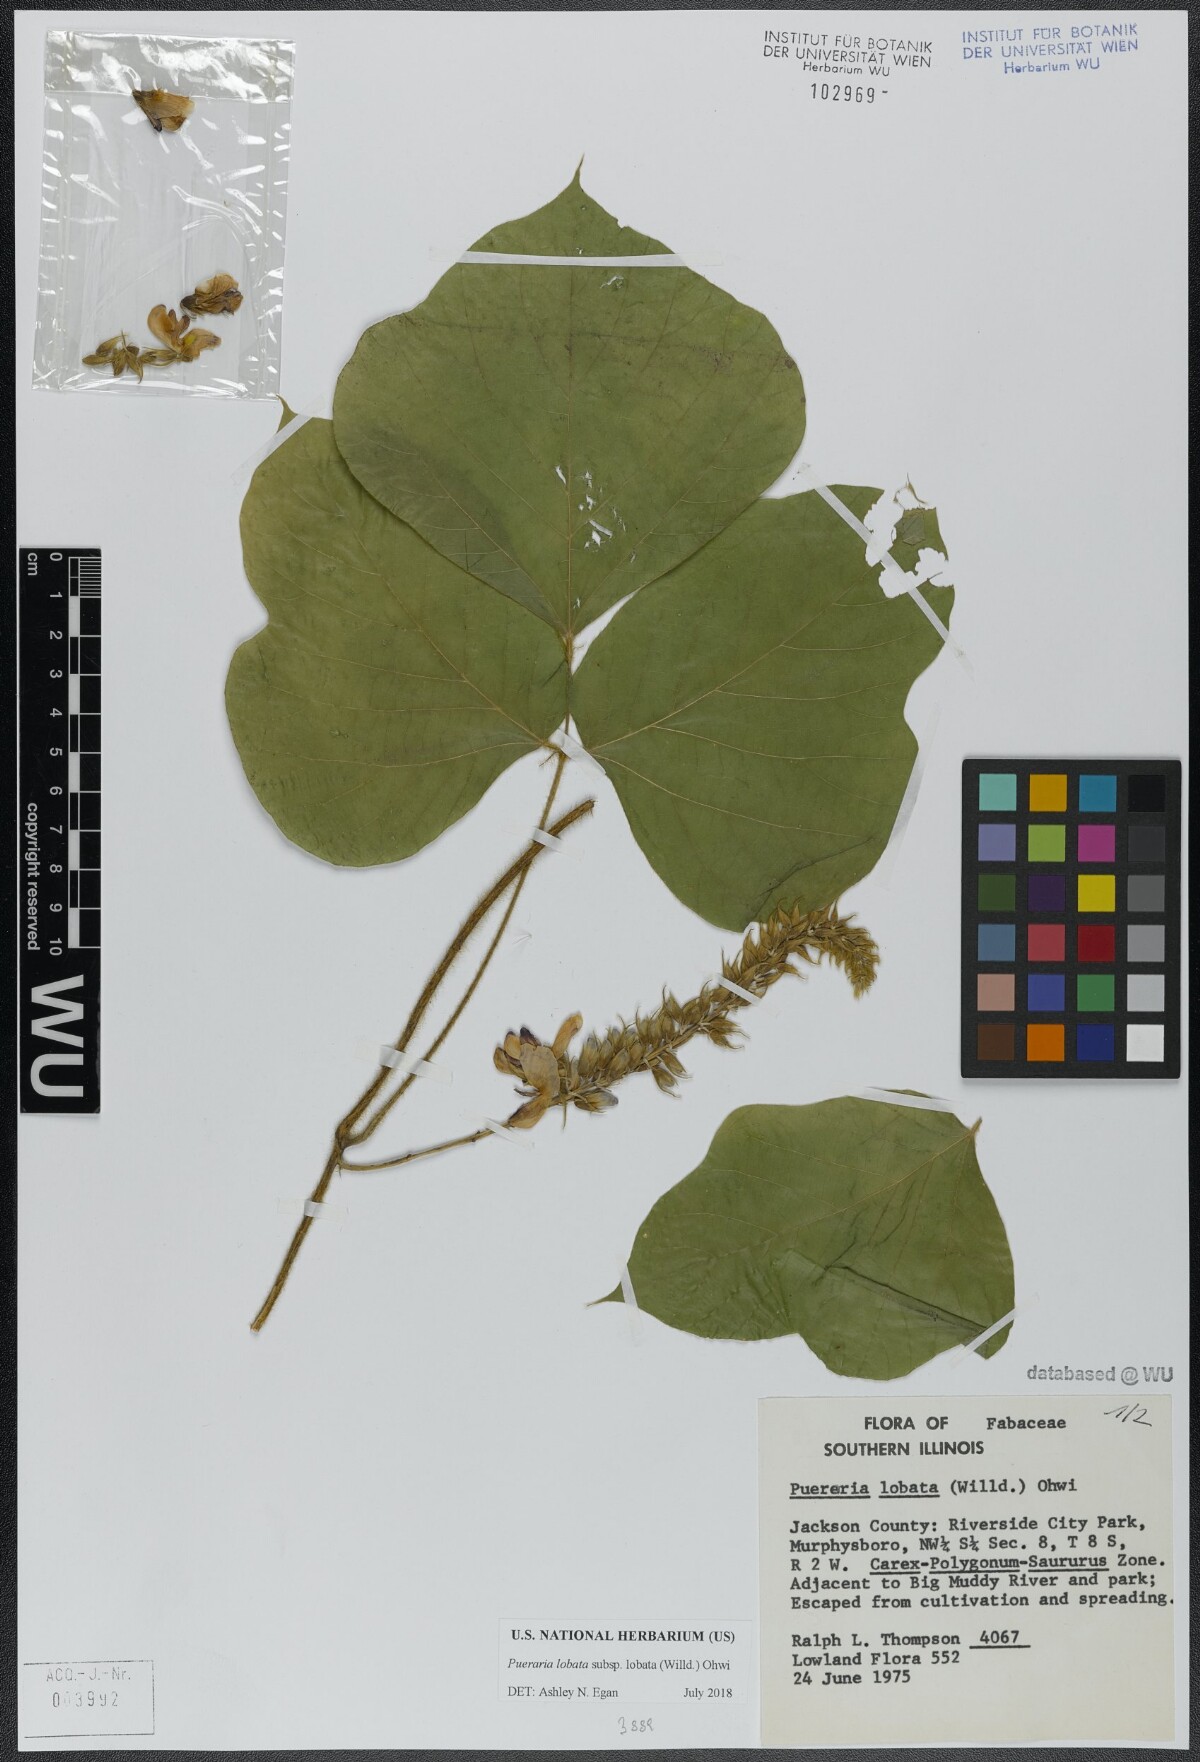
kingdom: Plantae
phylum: Tracheophyta
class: Magnoliopsida
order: Fabales
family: Fabaceae
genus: Pueraria
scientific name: Pueraria montana
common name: Kudzu
